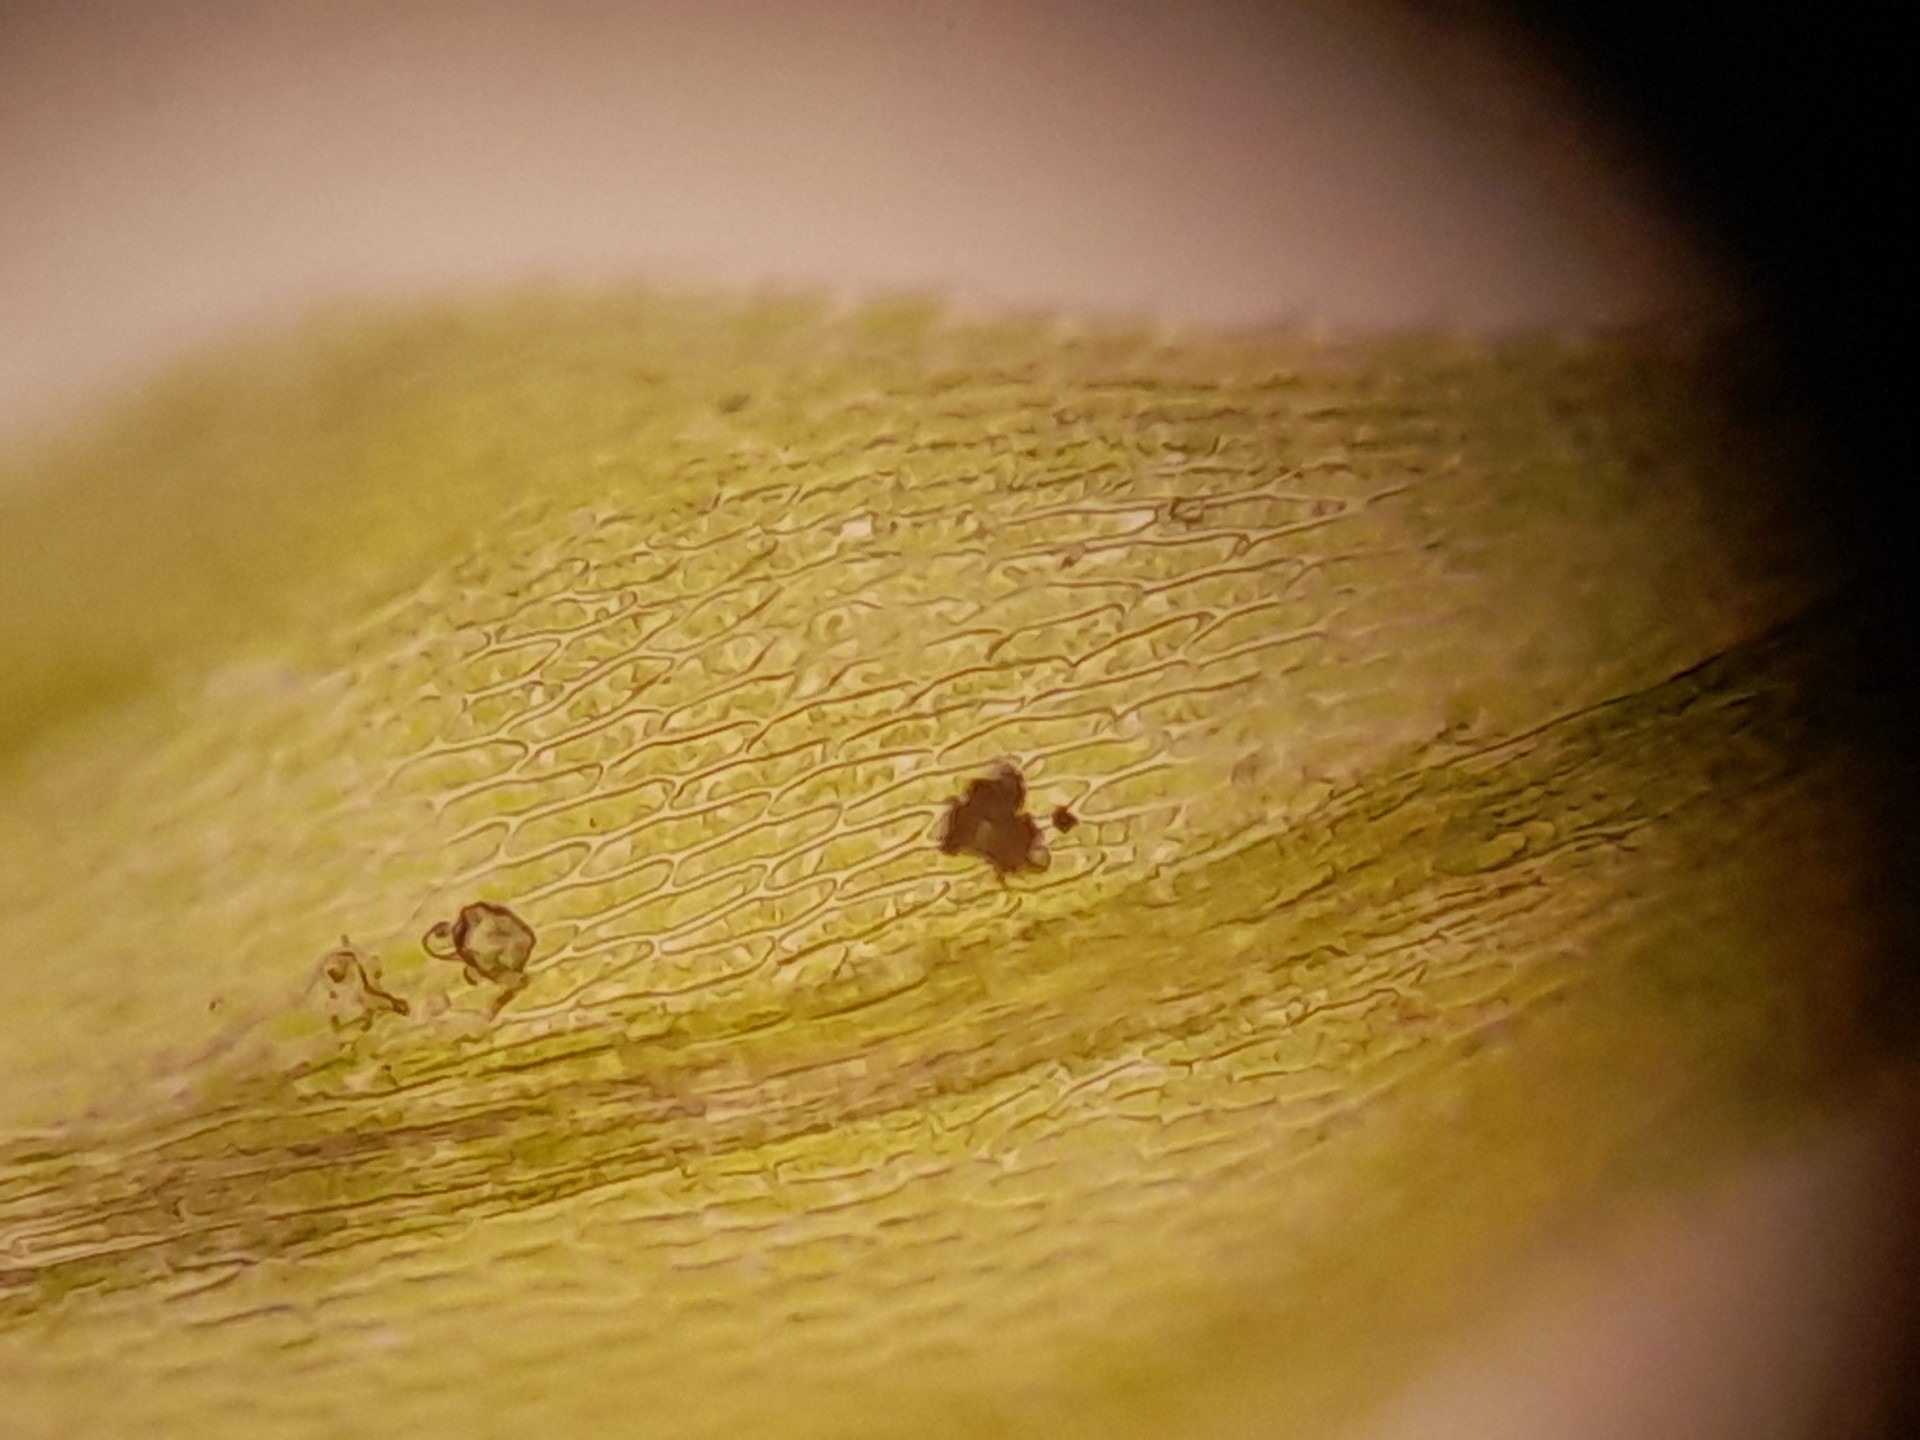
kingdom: Plantae
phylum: Bryophyta
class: Bryopsida
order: Hypnales
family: Brachytheciaceae
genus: Sciuro-hypnum
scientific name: Sciuro-hypnum reflexum
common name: Elle-kortkapsel
